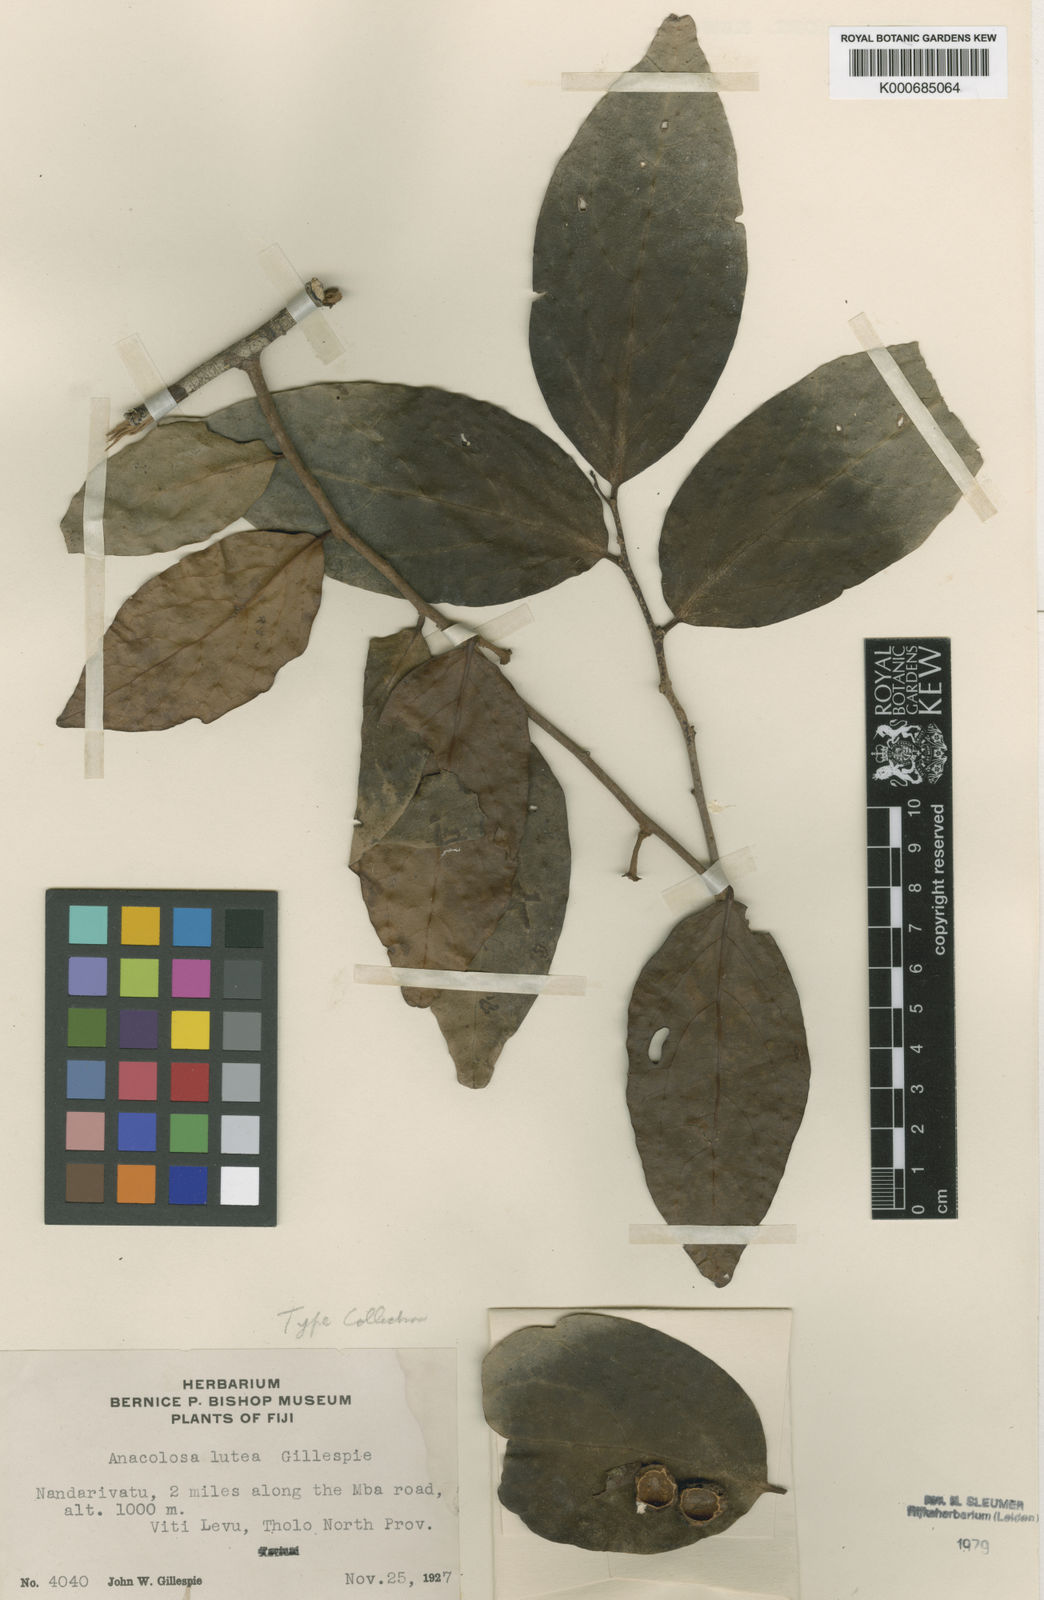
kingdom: Plantae
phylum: Tracheophyta
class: Magnoliopsida
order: Santalales
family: Aptandraceae
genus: Anacolosa
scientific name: Anacolosa lutea
